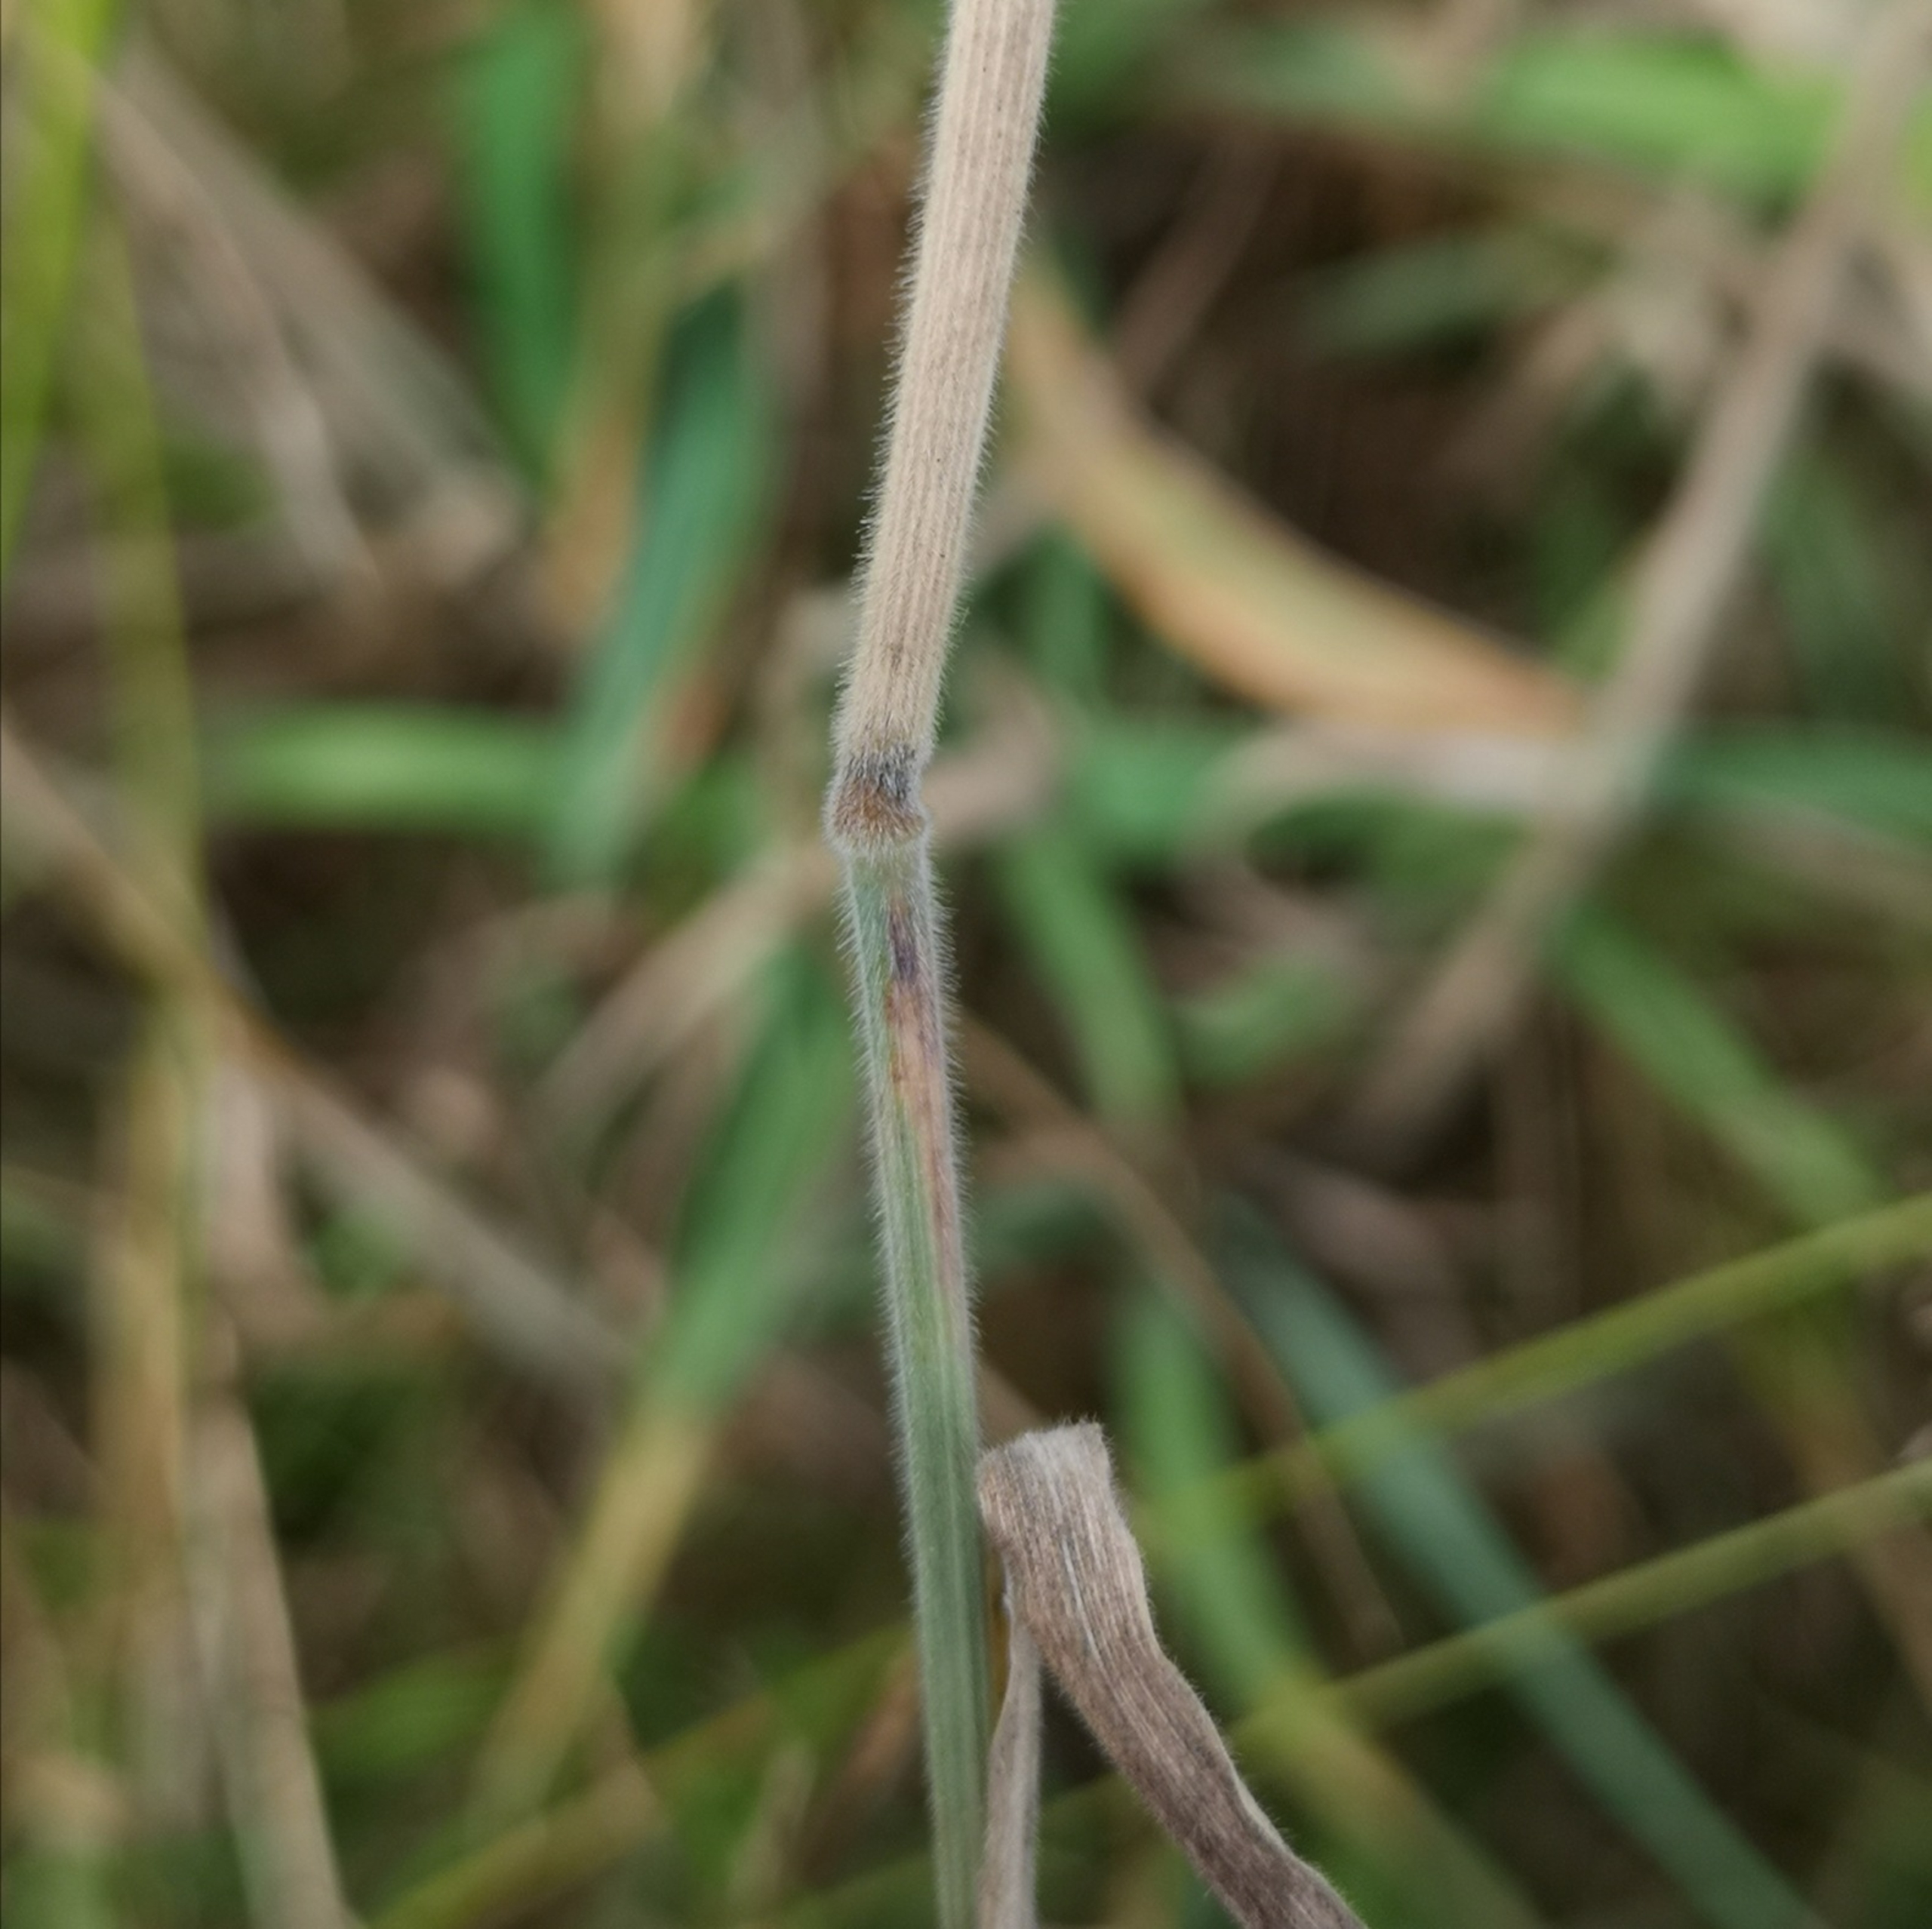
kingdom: Plantae
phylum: Tracheophyta
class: Liliopsida
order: Poales
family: Poaceae
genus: Holcus
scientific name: Holcus lanatus
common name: Fløjlsgræs
